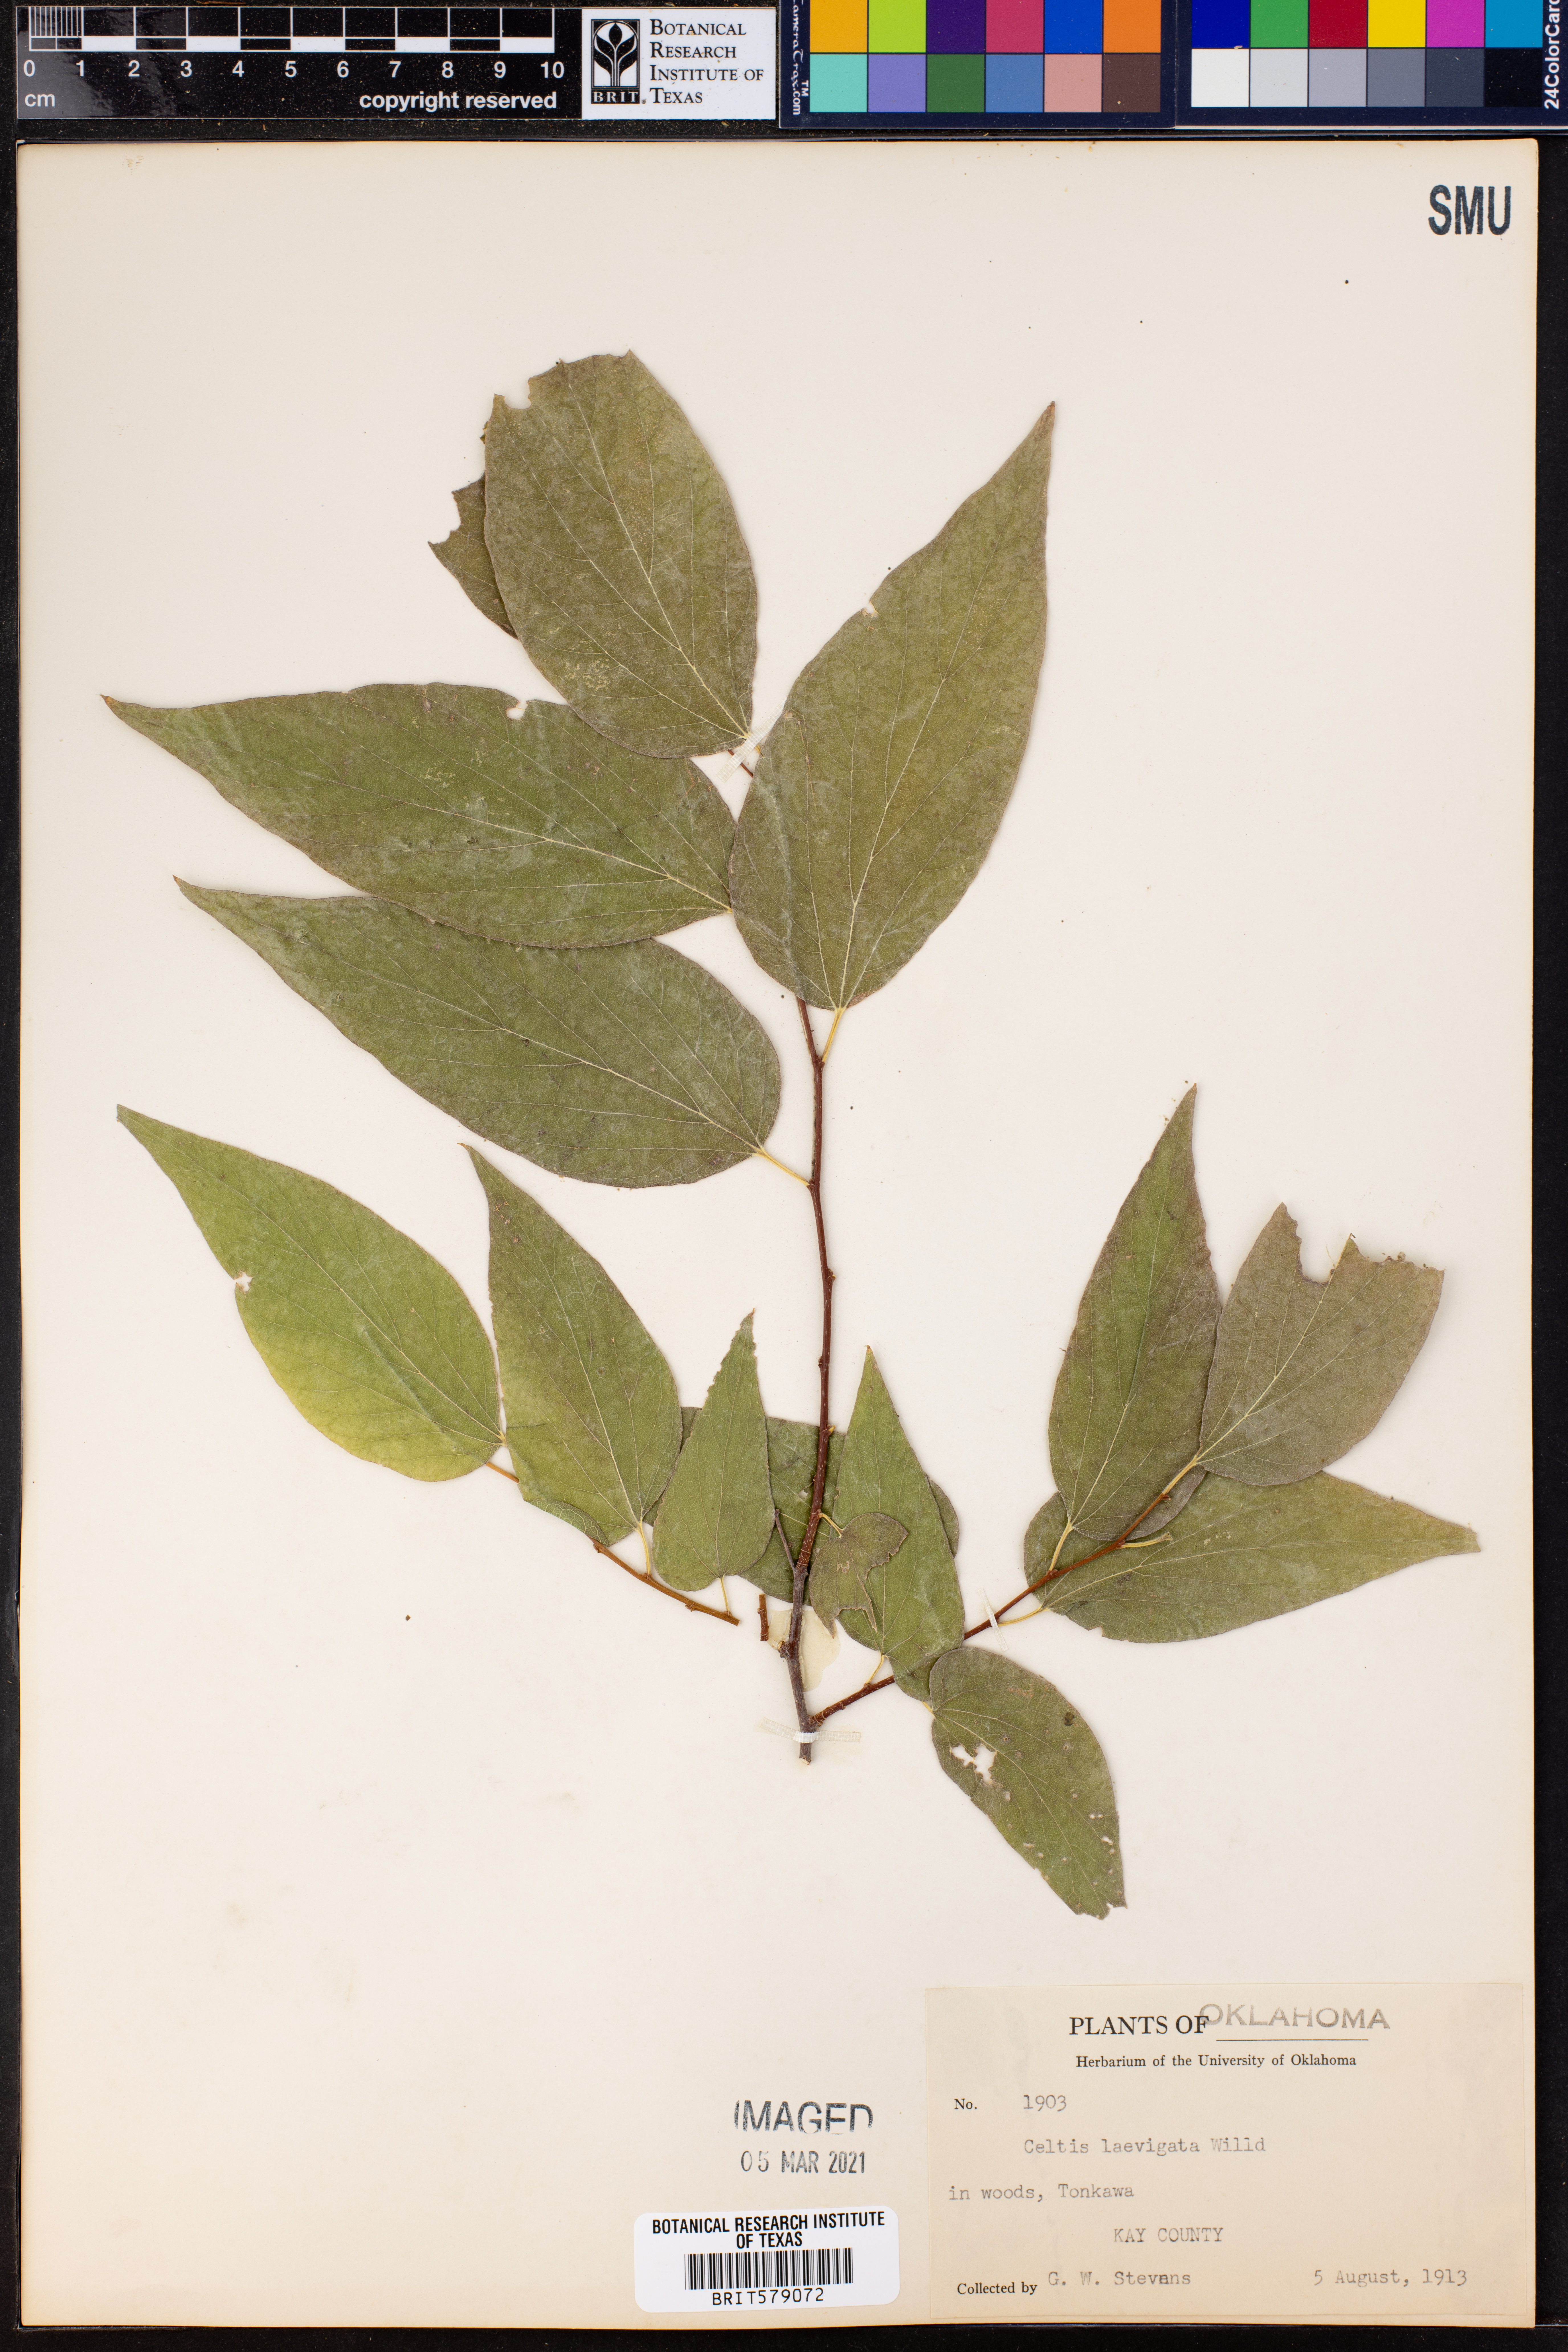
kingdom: Plantae
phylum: Tracheophyta
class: Magnoliopsida
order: Rosales
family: Cannabaceae
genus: Celtis
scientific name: Celtis laevigata
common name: Sugarberry
